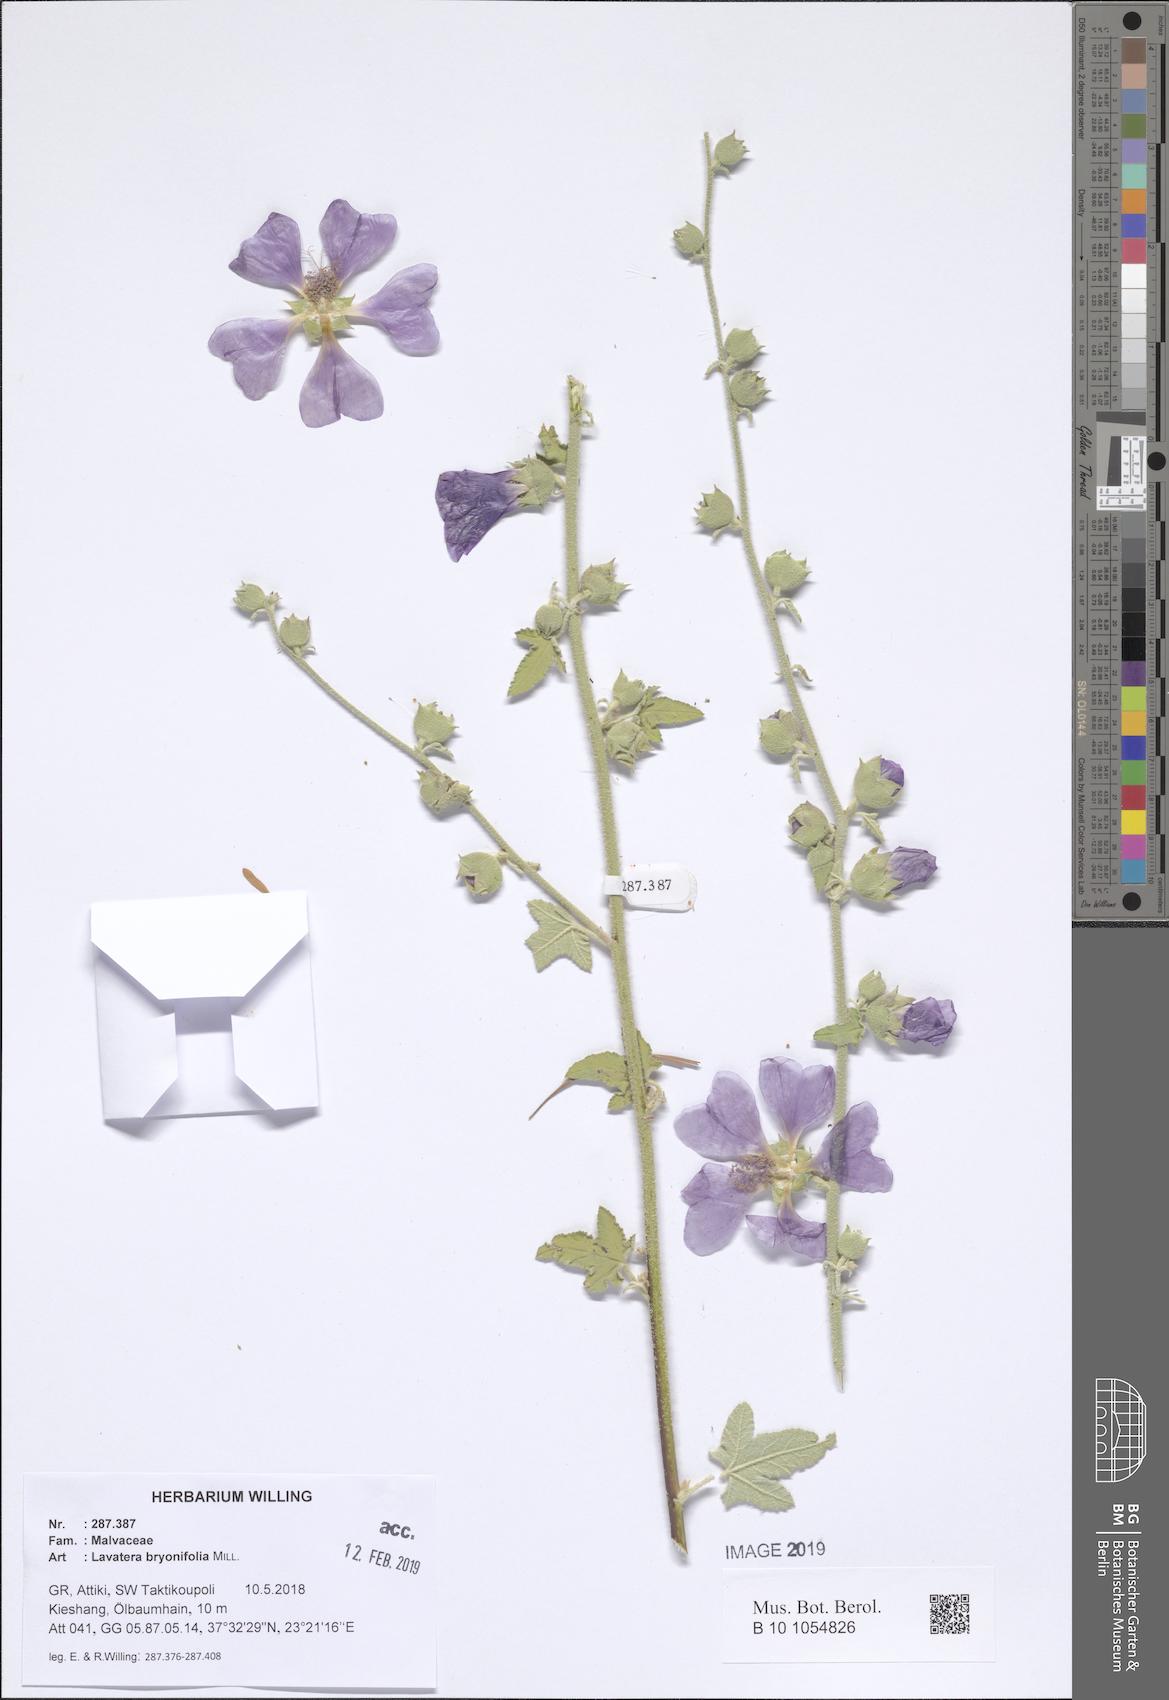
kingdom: Plantae
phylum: Tracheophyta
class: Magnoliopsida
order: Malvales
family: Malvaceae
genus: Malva
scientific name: Malva unguiculata
